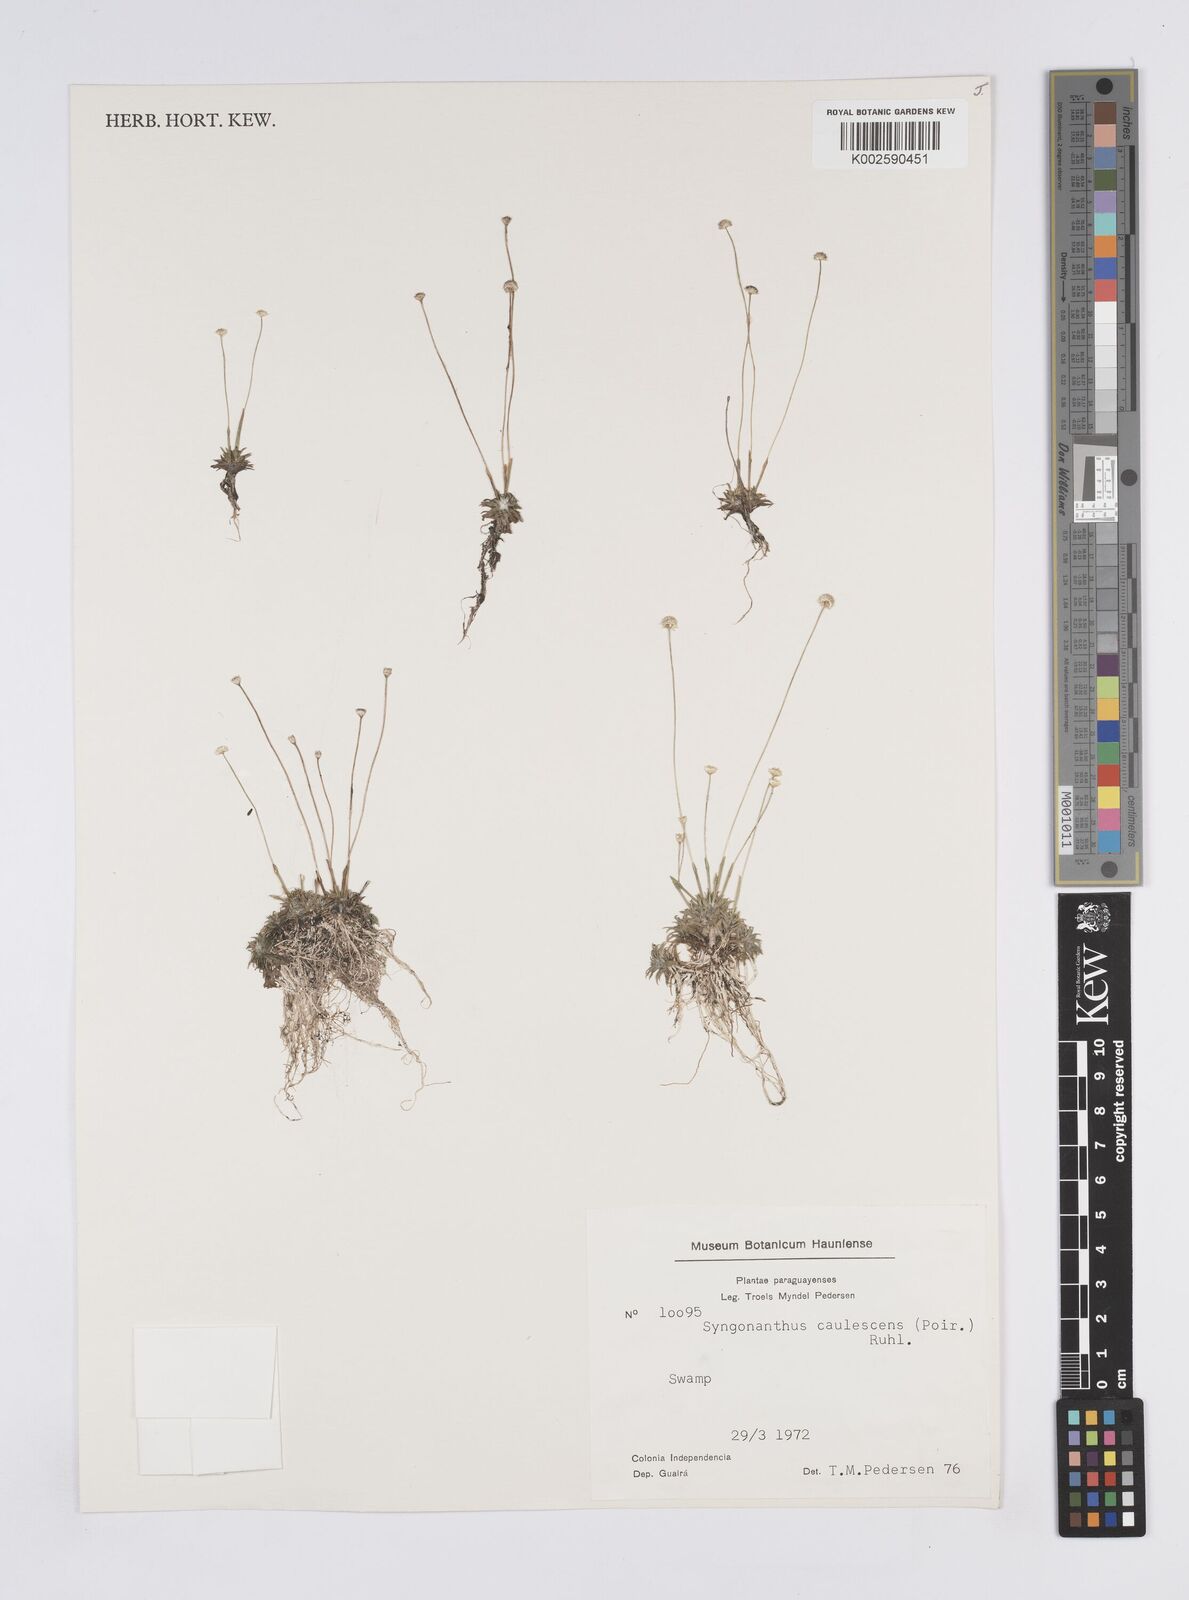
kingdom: Plantae
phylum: Tracheophyta
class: Liliopsida
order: Poales
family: Eriocaulaceae
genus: Syngonanthus
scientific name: Syngonanthus caulescens
